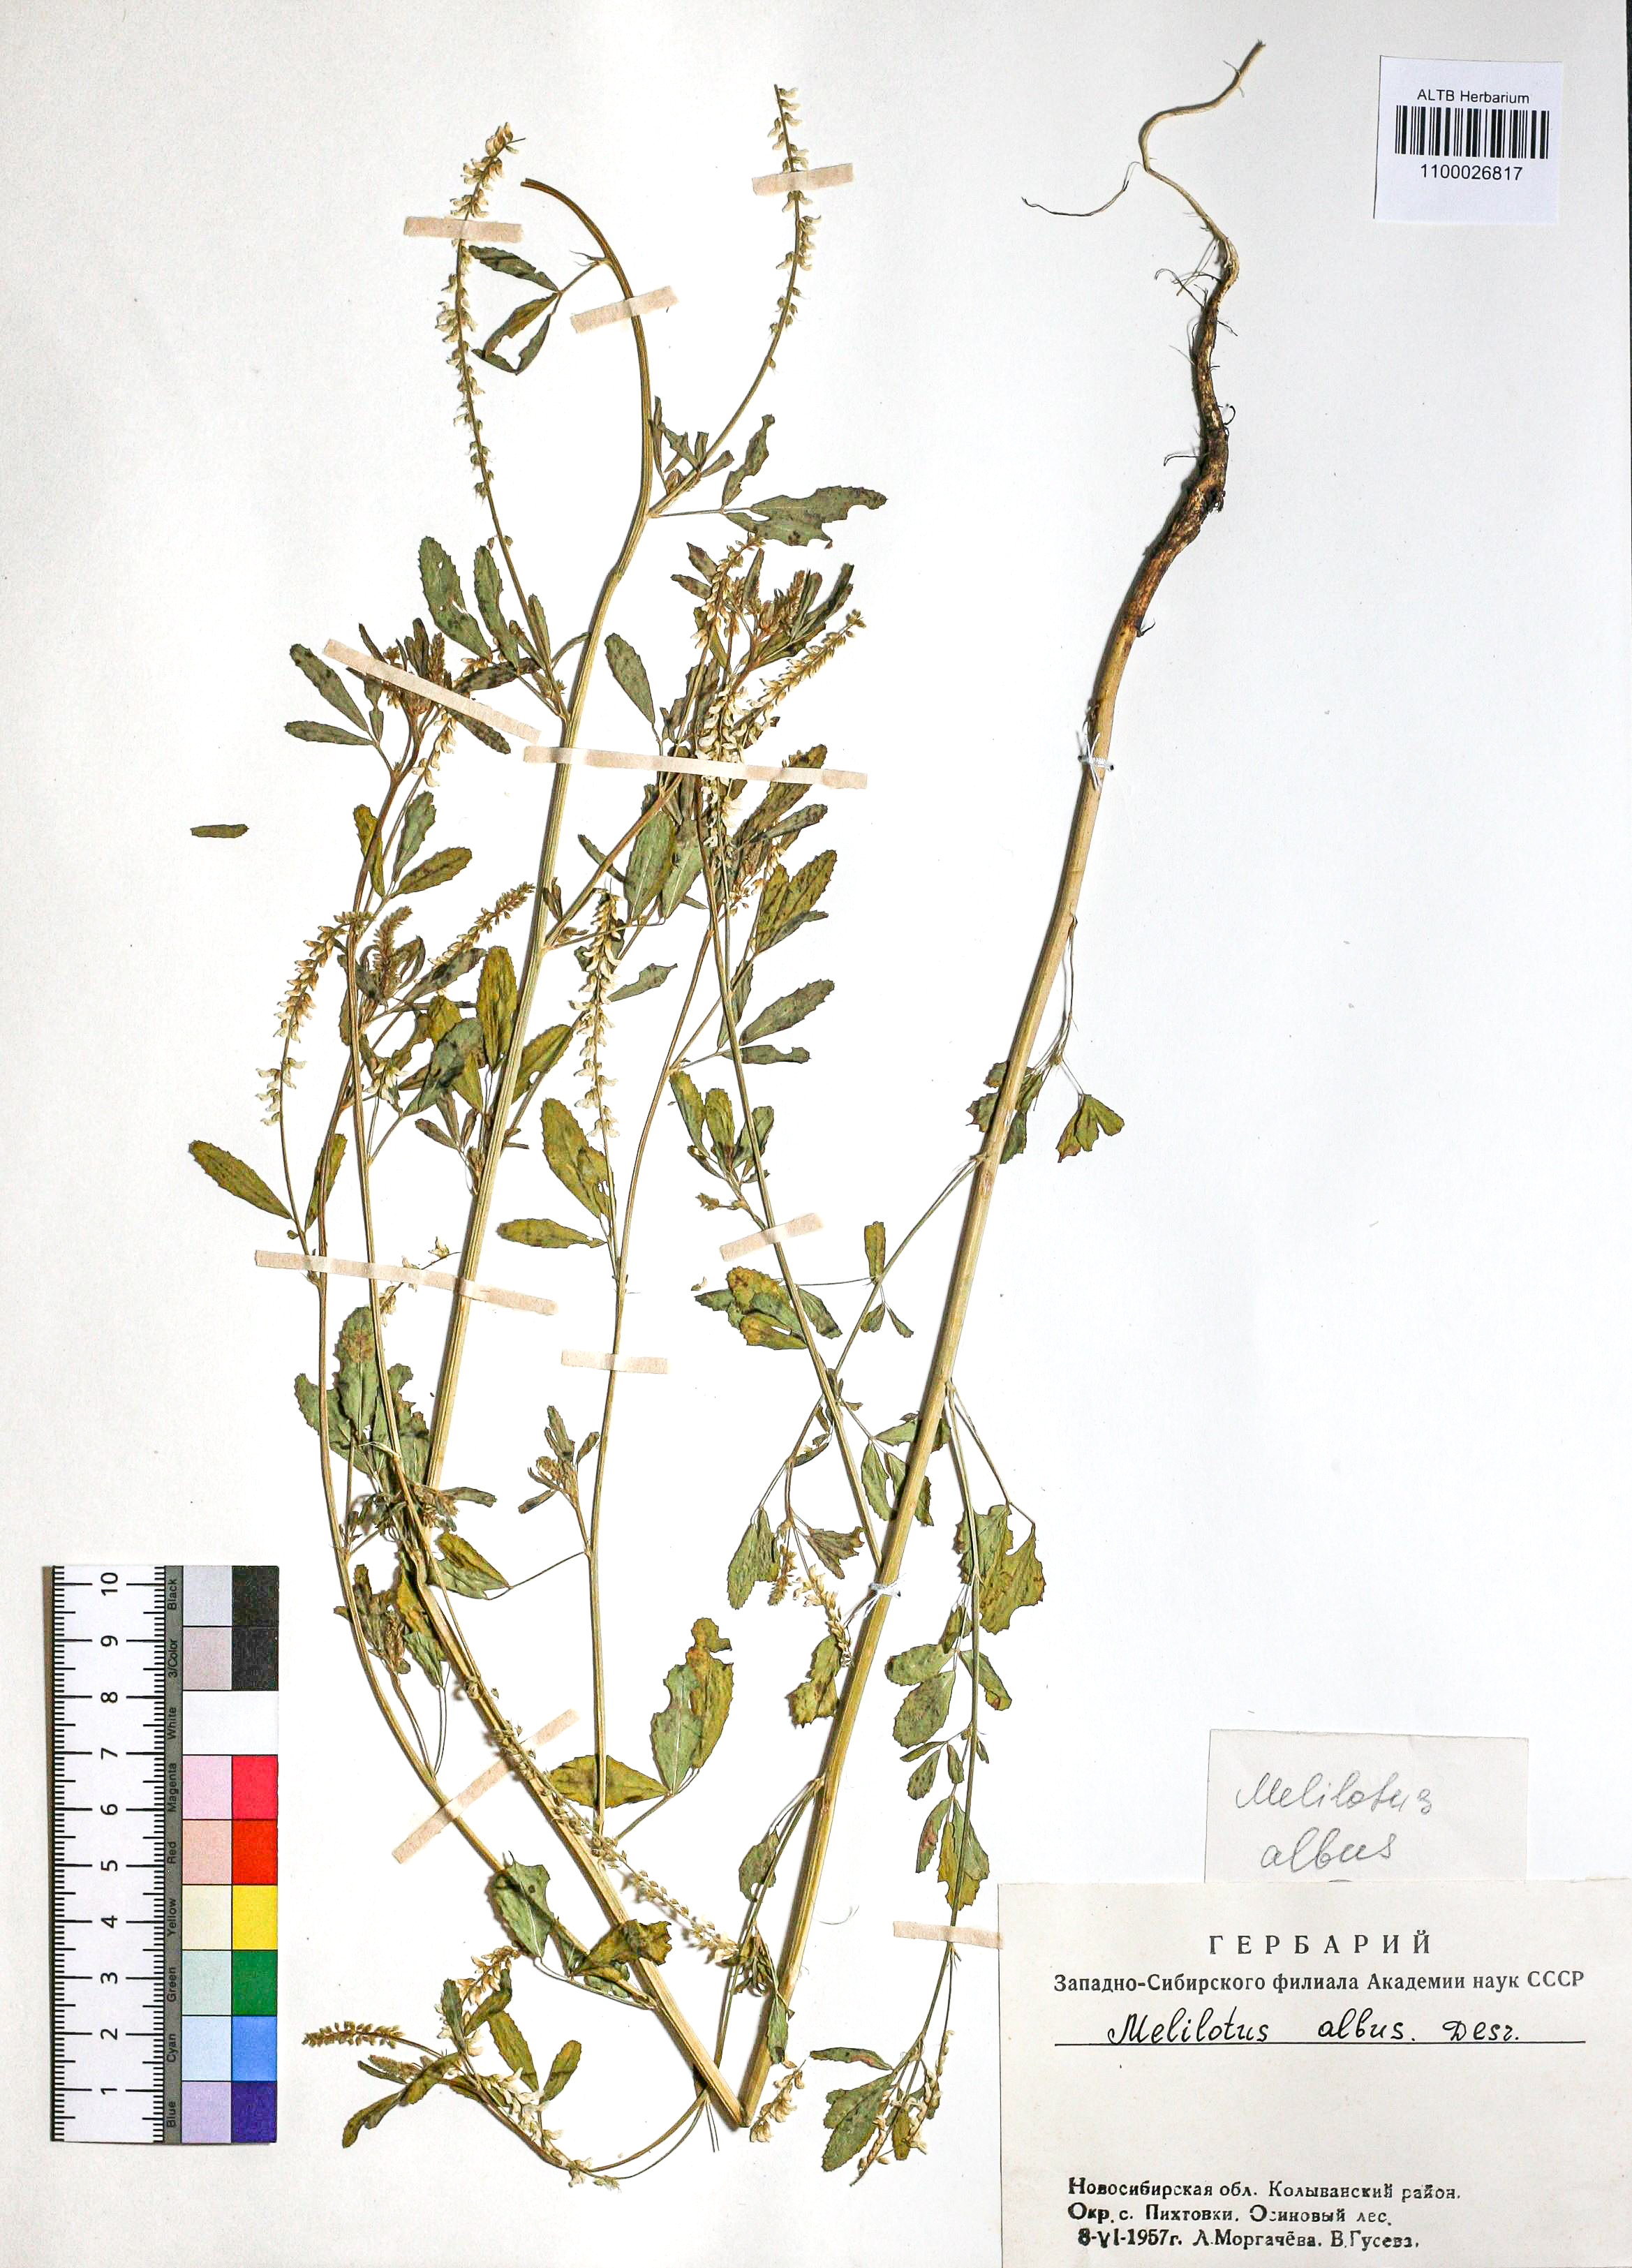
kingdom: Plantae
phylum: Tracheophyta
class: Magnoliopsida
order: Fabales
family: Fabaceae
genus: Melilotus
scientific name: Melilotus albus
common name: White melilot
